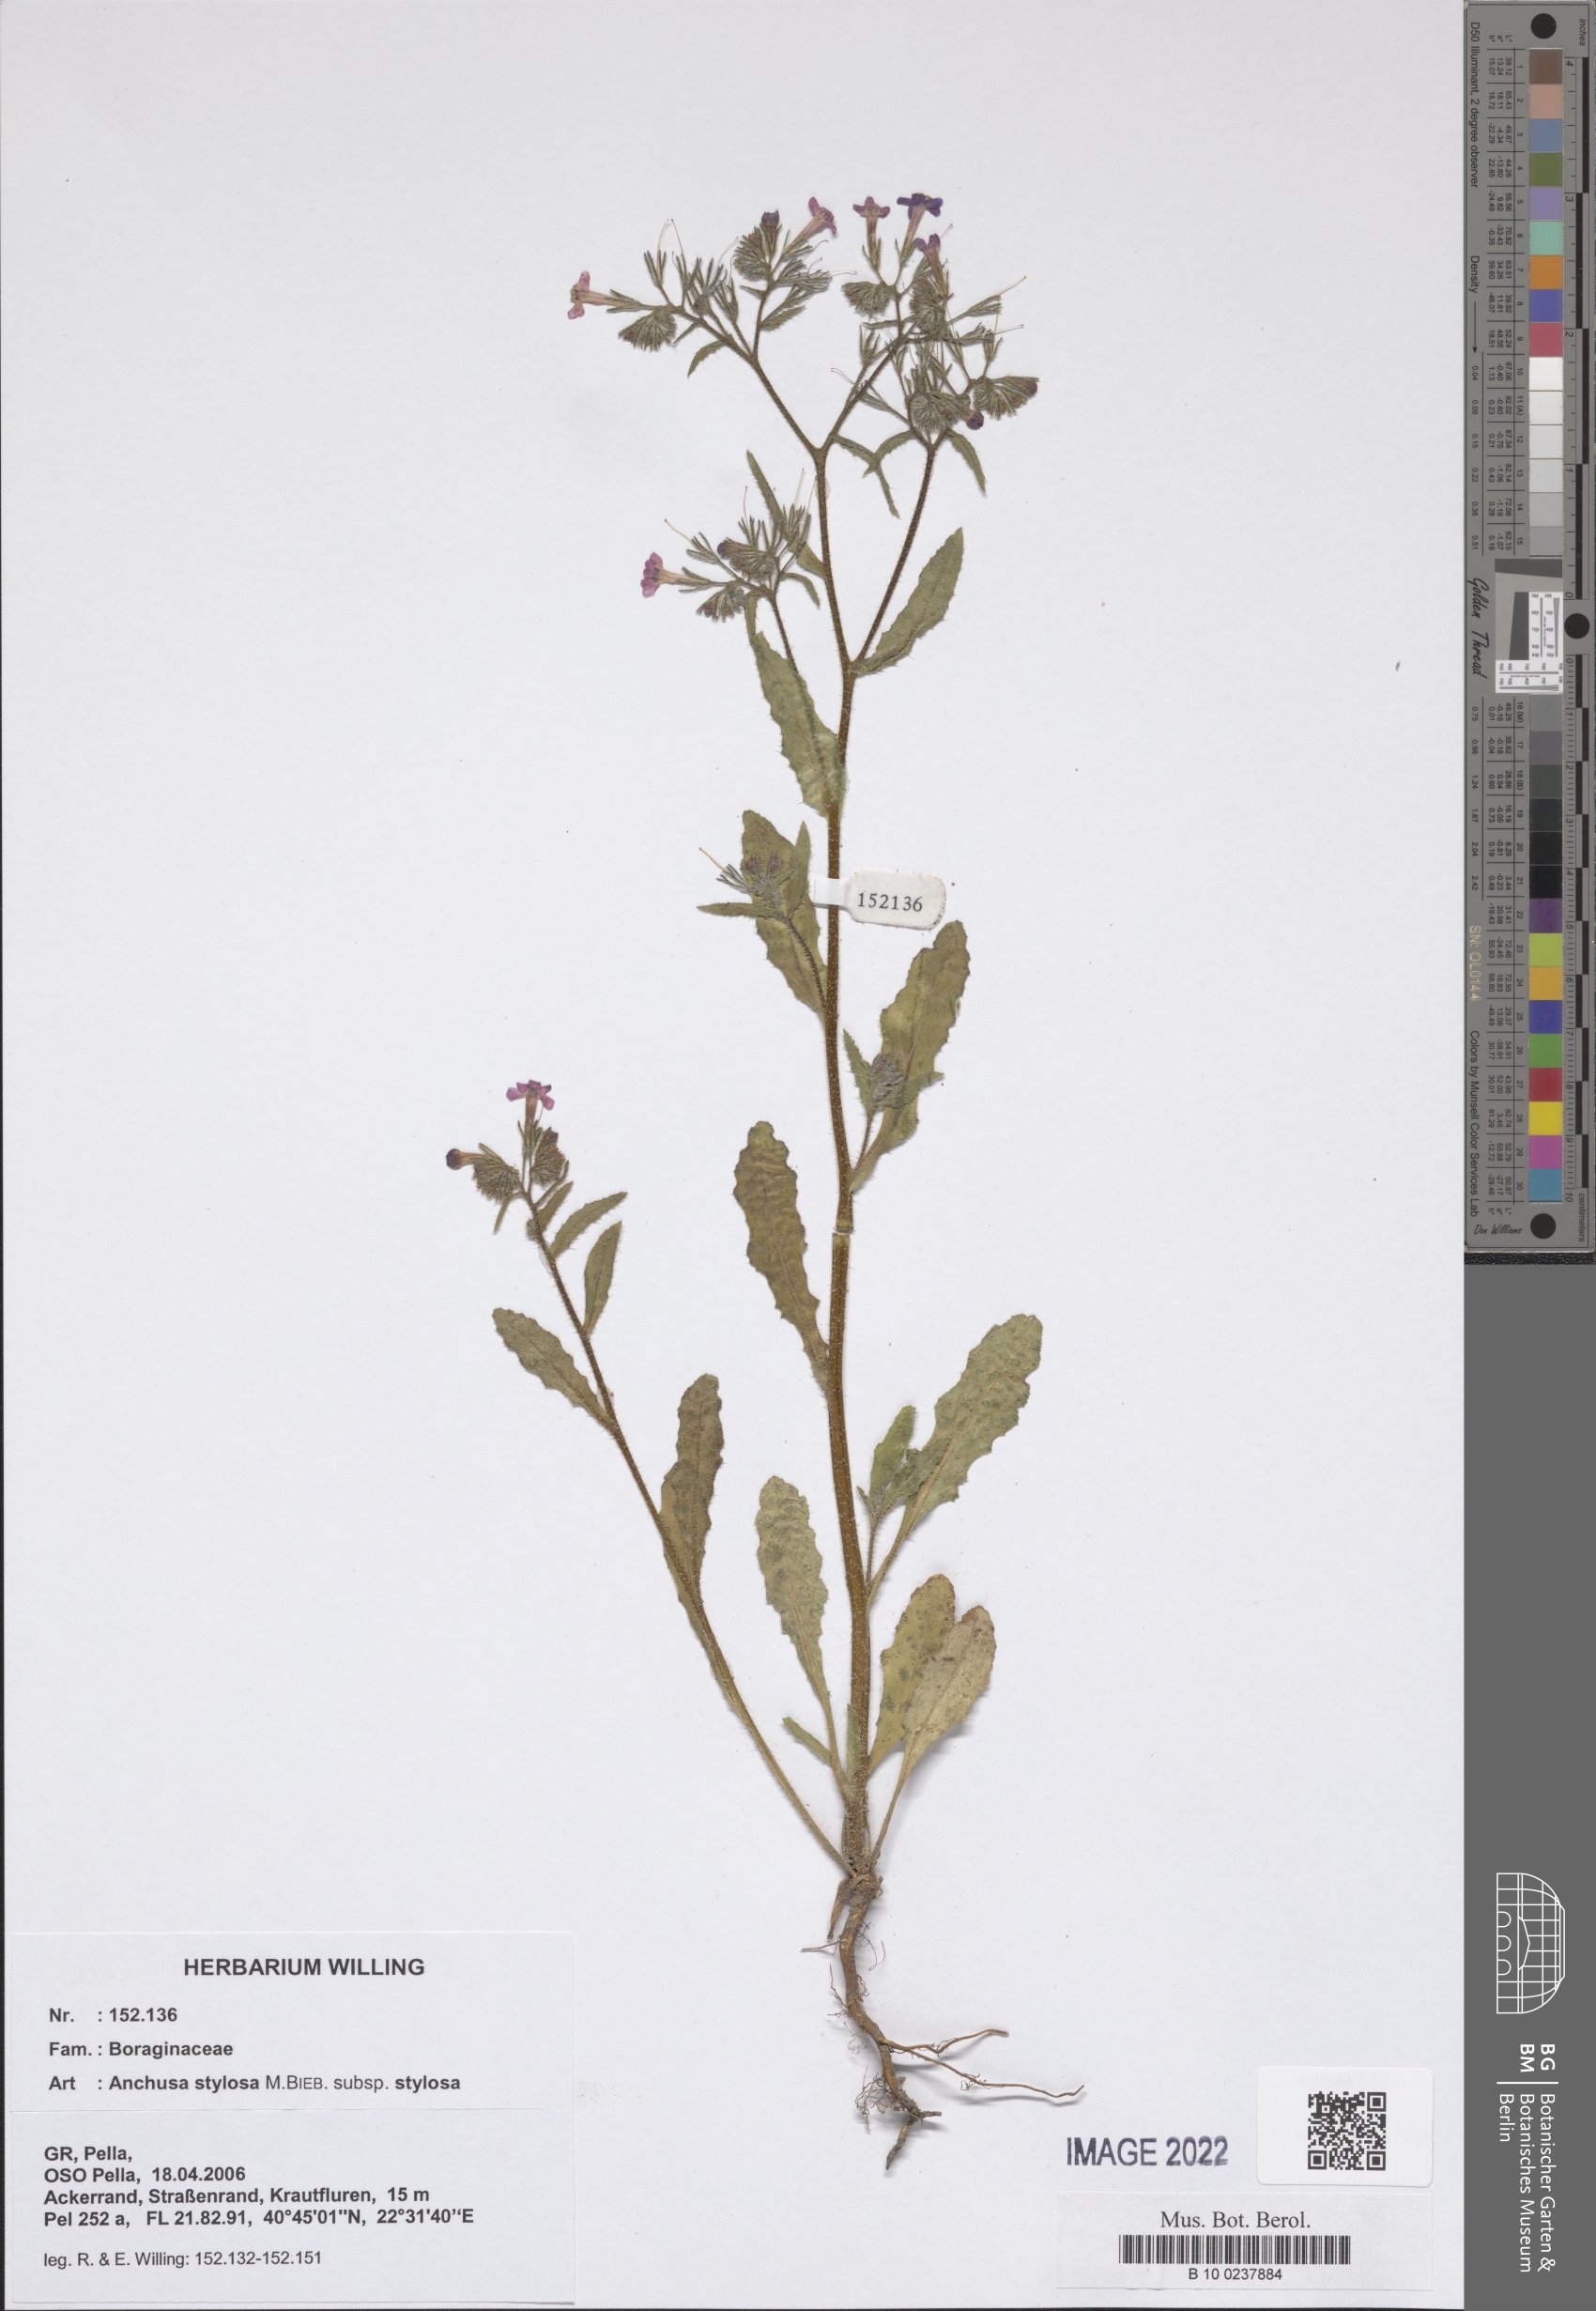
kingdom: Plantae
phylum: Tracheophyta
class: Magnoliopsida
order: Boraginales
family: Boraginaceae
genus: Anchusa
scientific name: Anchusa stylosa
